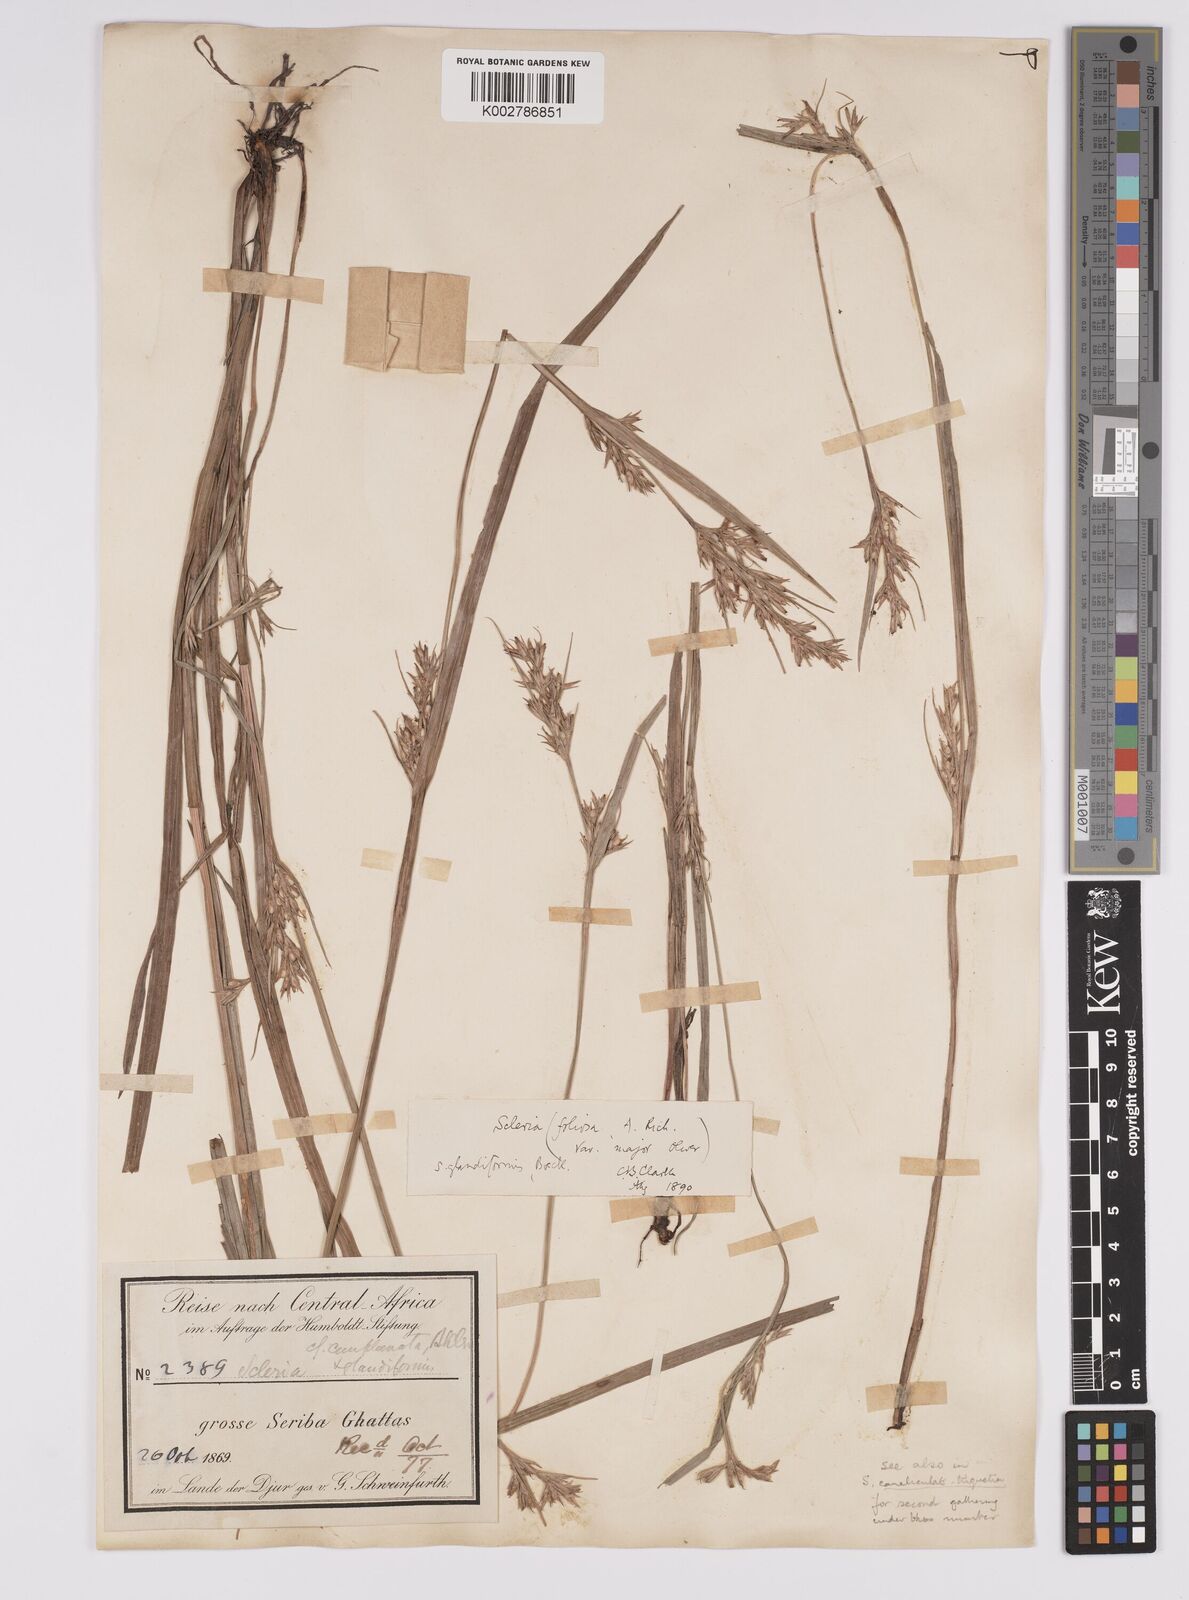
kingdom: Plantae
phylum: Tracheophyta
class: Liliopsida
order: Poales
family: Cyperaceae
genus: Scleria
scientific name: Scleria tessellata
